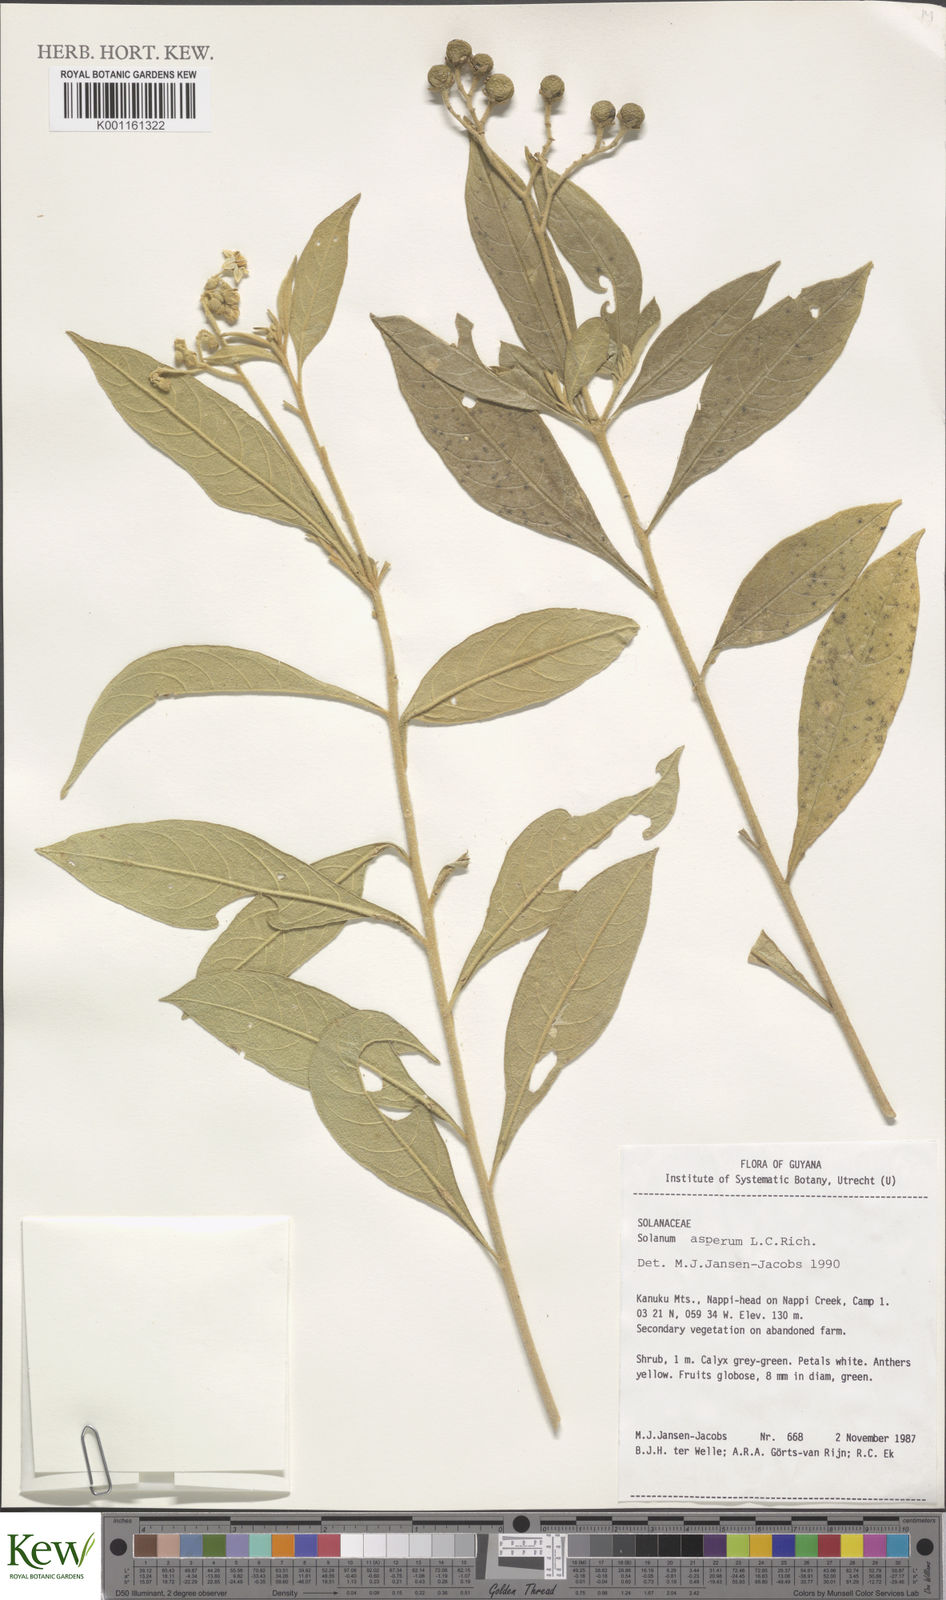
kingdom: Plantae
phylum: Tracheophyta
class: Magnoliopsida
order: Solanales
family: Solanaceae
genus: Solanum
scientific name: Solanum asperum
